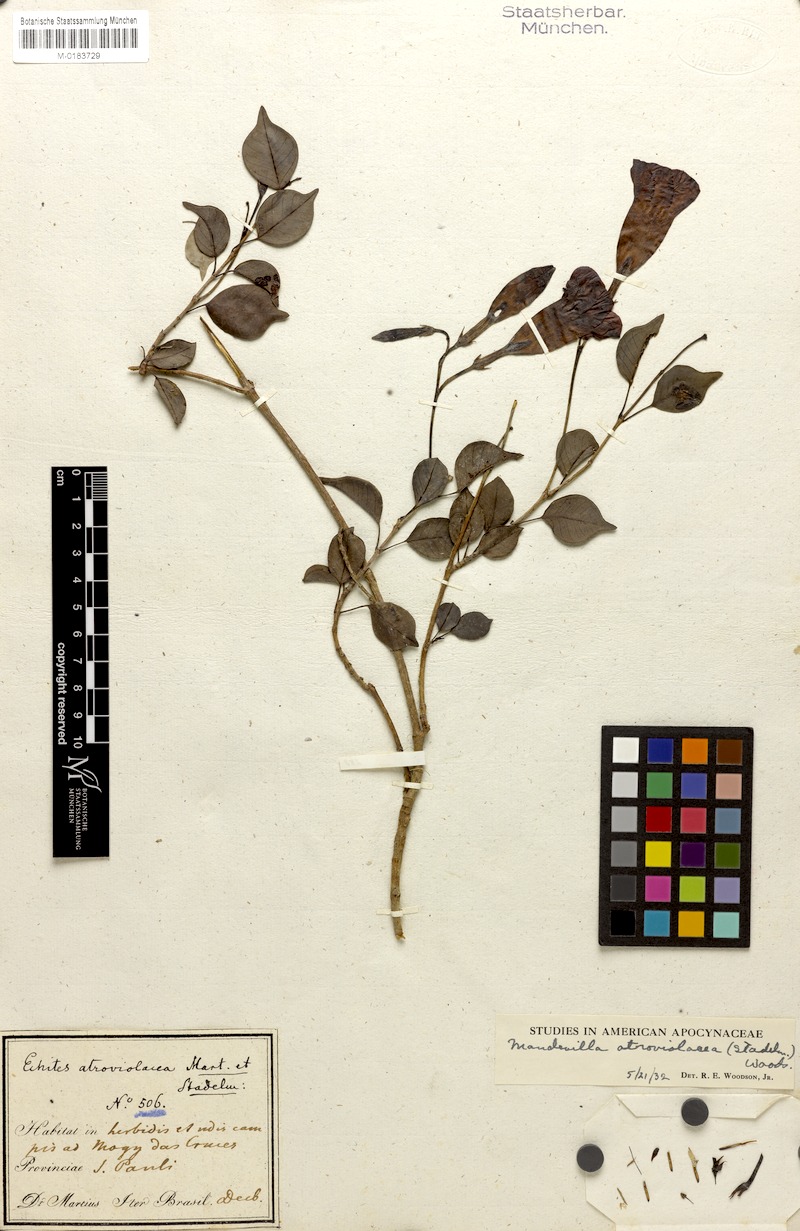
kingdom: Plantae
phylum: Tracheophyta
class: Magnoliopsida
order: Gentianales
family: Apocynaceae
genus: Mandevilla
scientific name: Mandevilla atroviolacea
